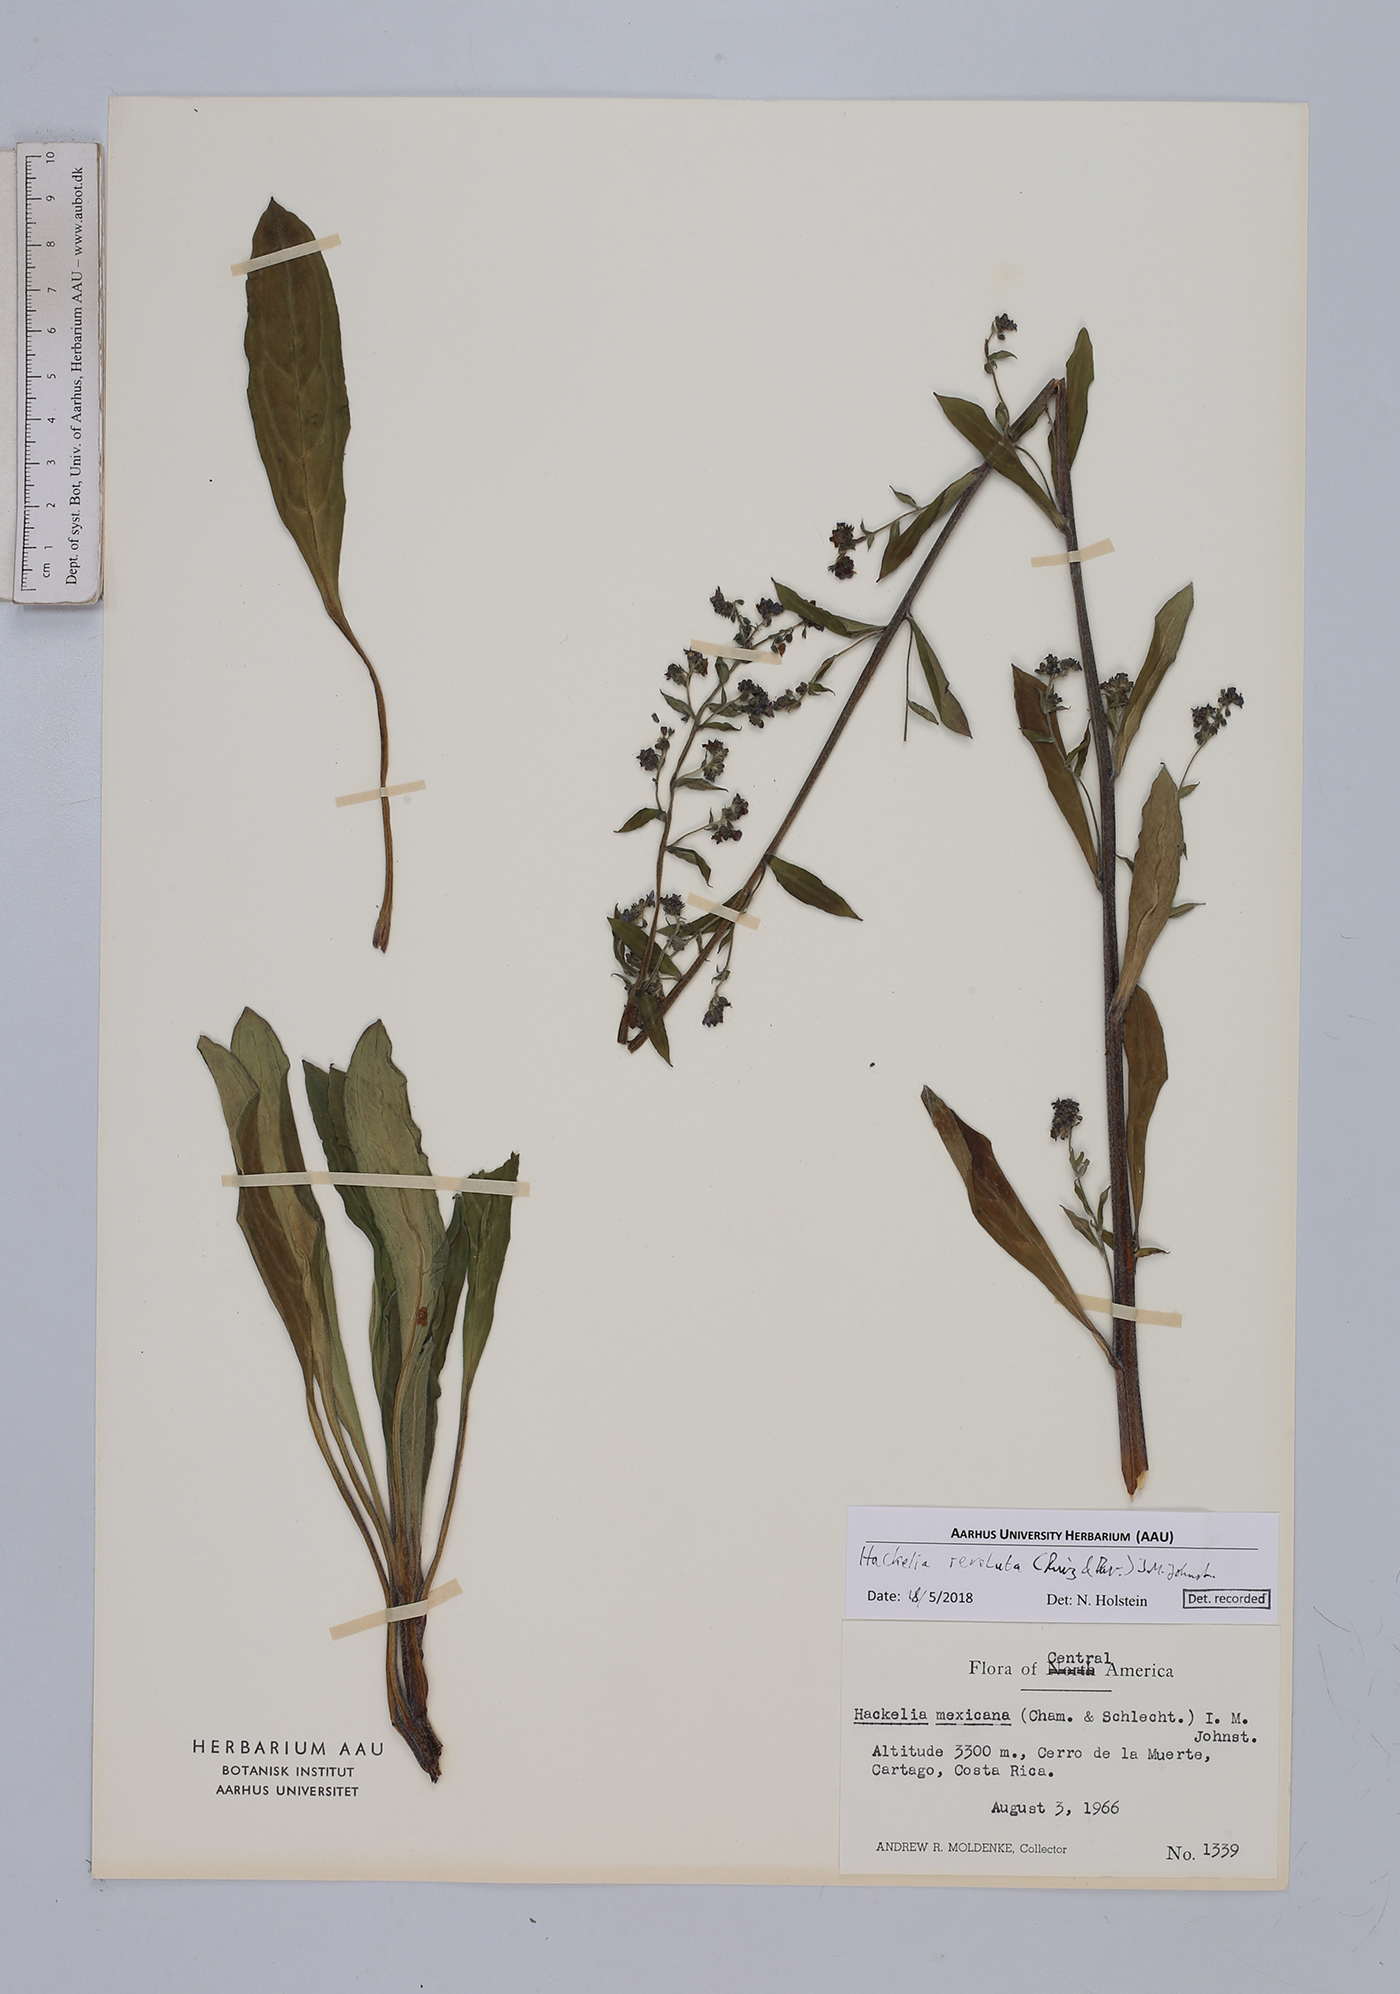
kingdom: Plantae
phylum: Tracheophyta
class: Magnoliopsida
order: Boraginales
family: Boraginaceae
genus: Hackelia
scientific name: Hackelia revoluta
